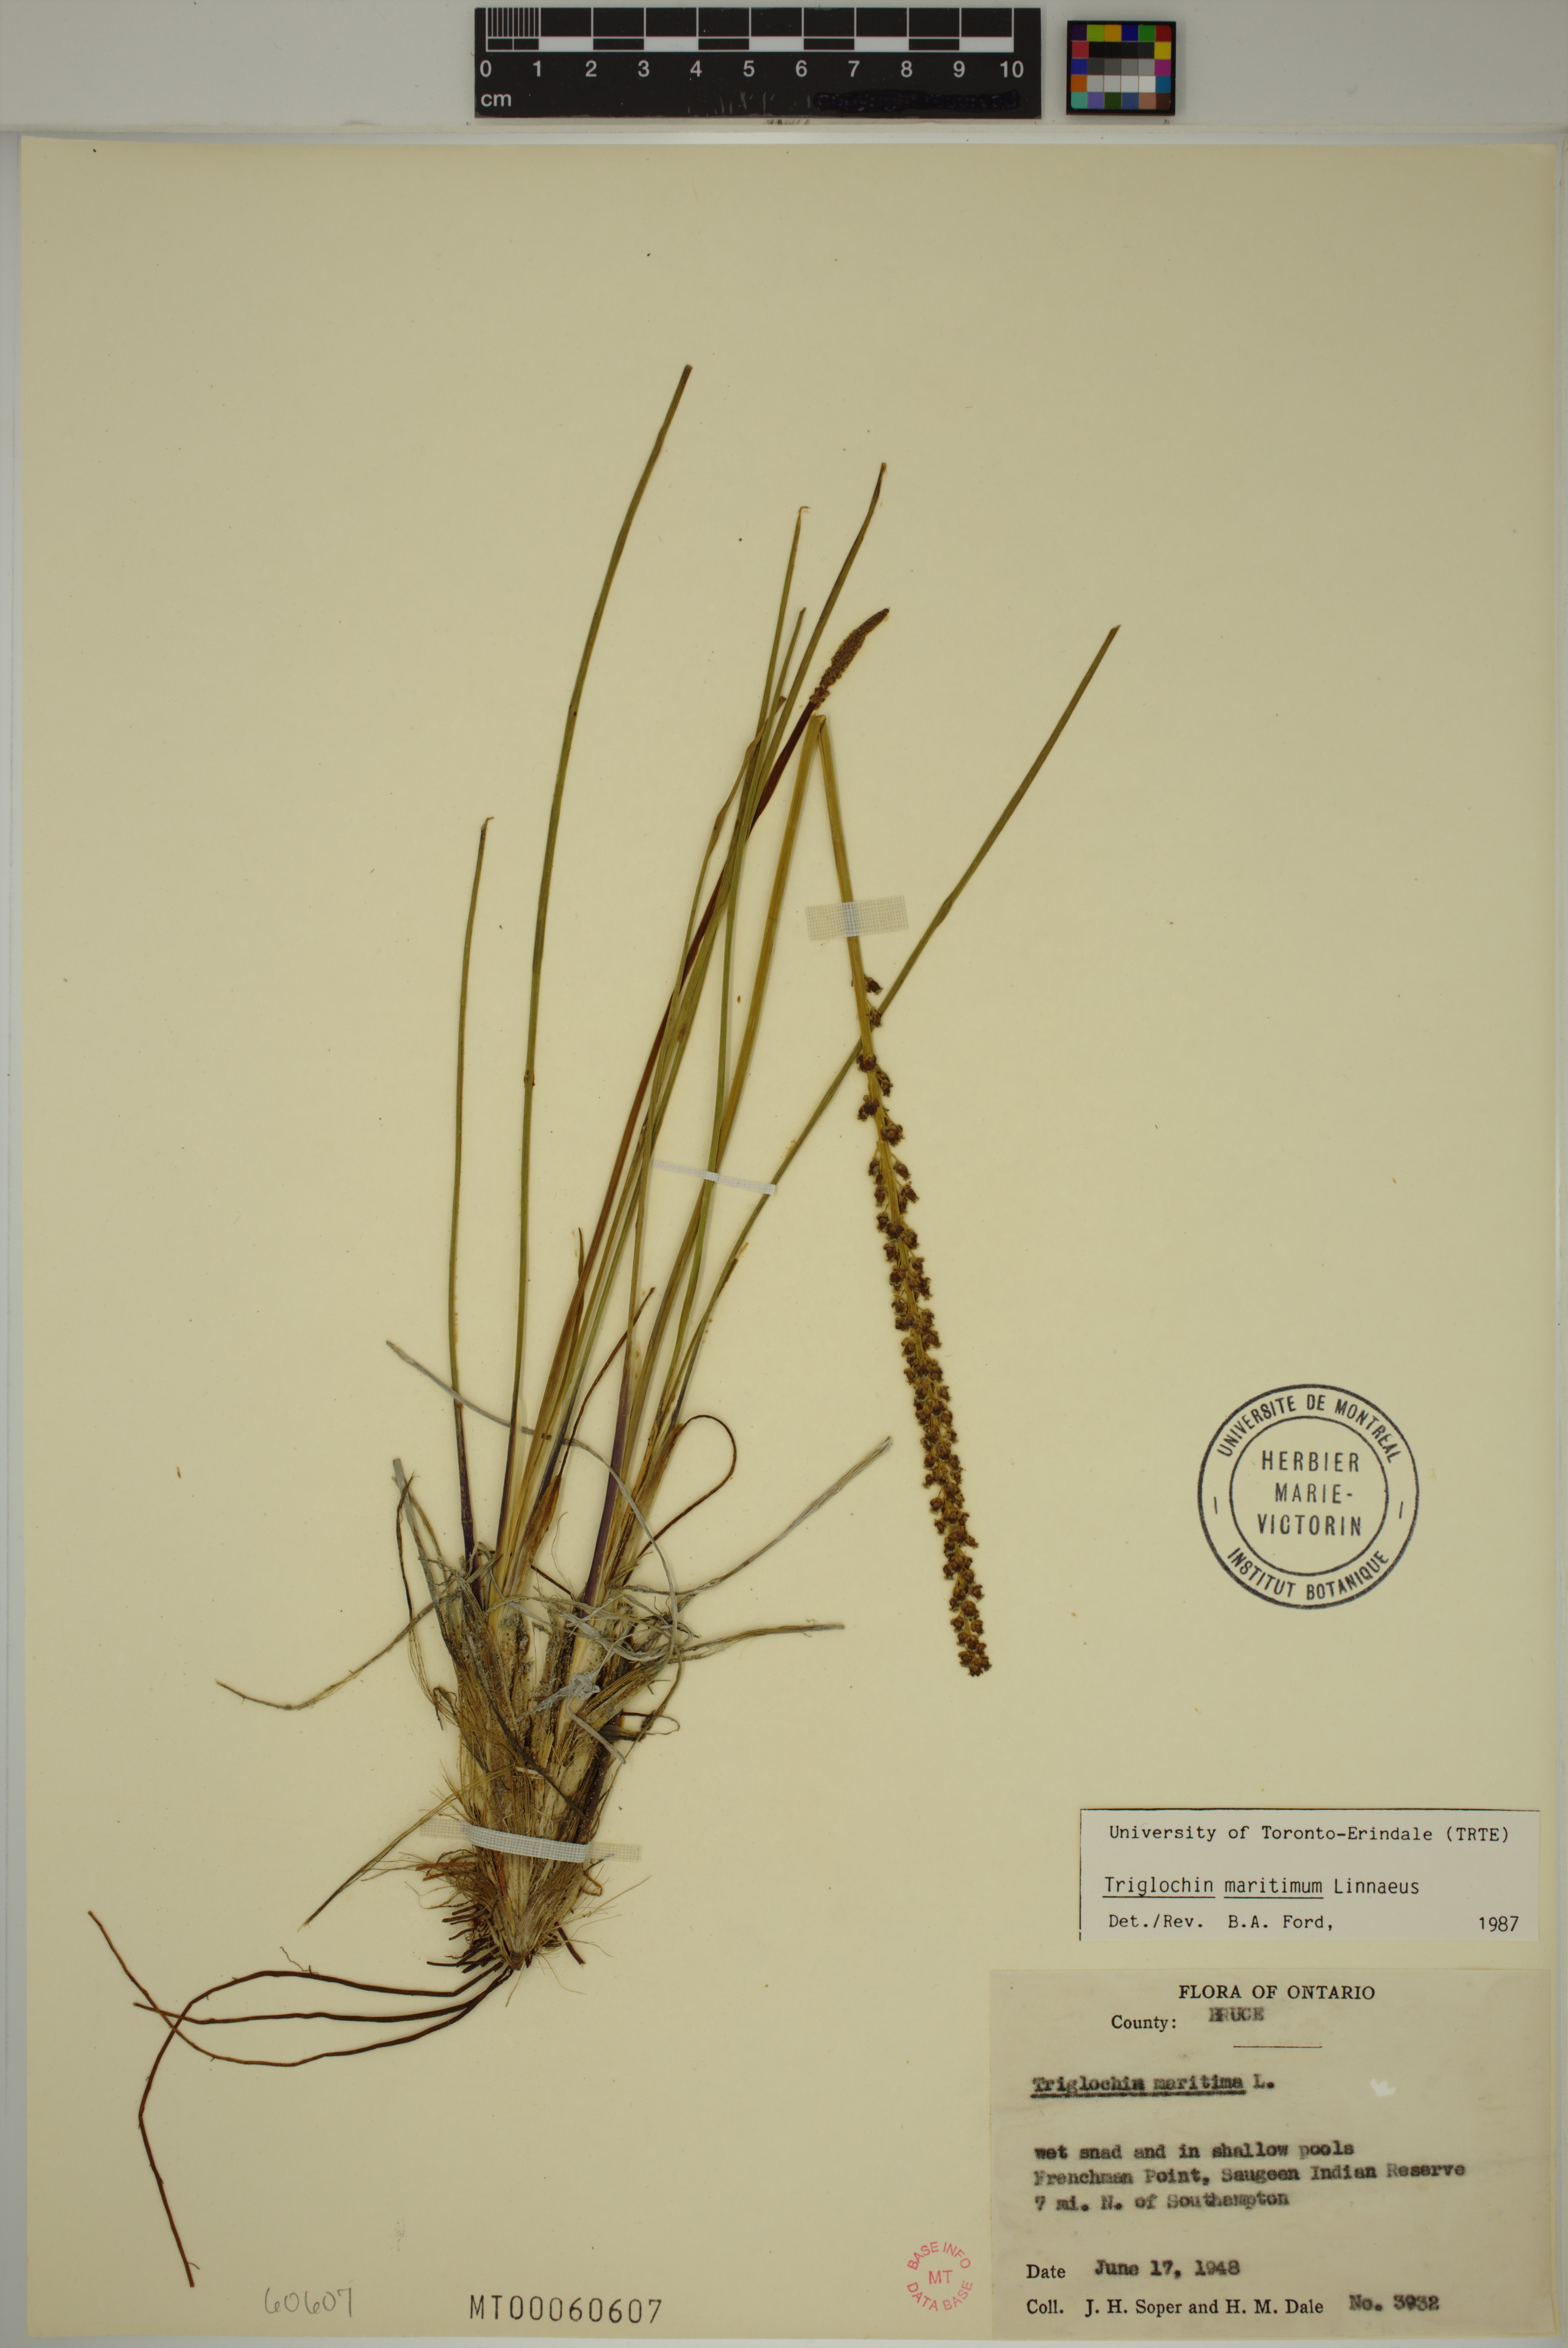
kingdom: Plantae
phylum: Tracheophyta
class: Liliopsida
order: Alismatales
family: Juncaginaceae
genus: Triglochin
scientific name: Triglochin maritima
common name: Sea arrowgrass
